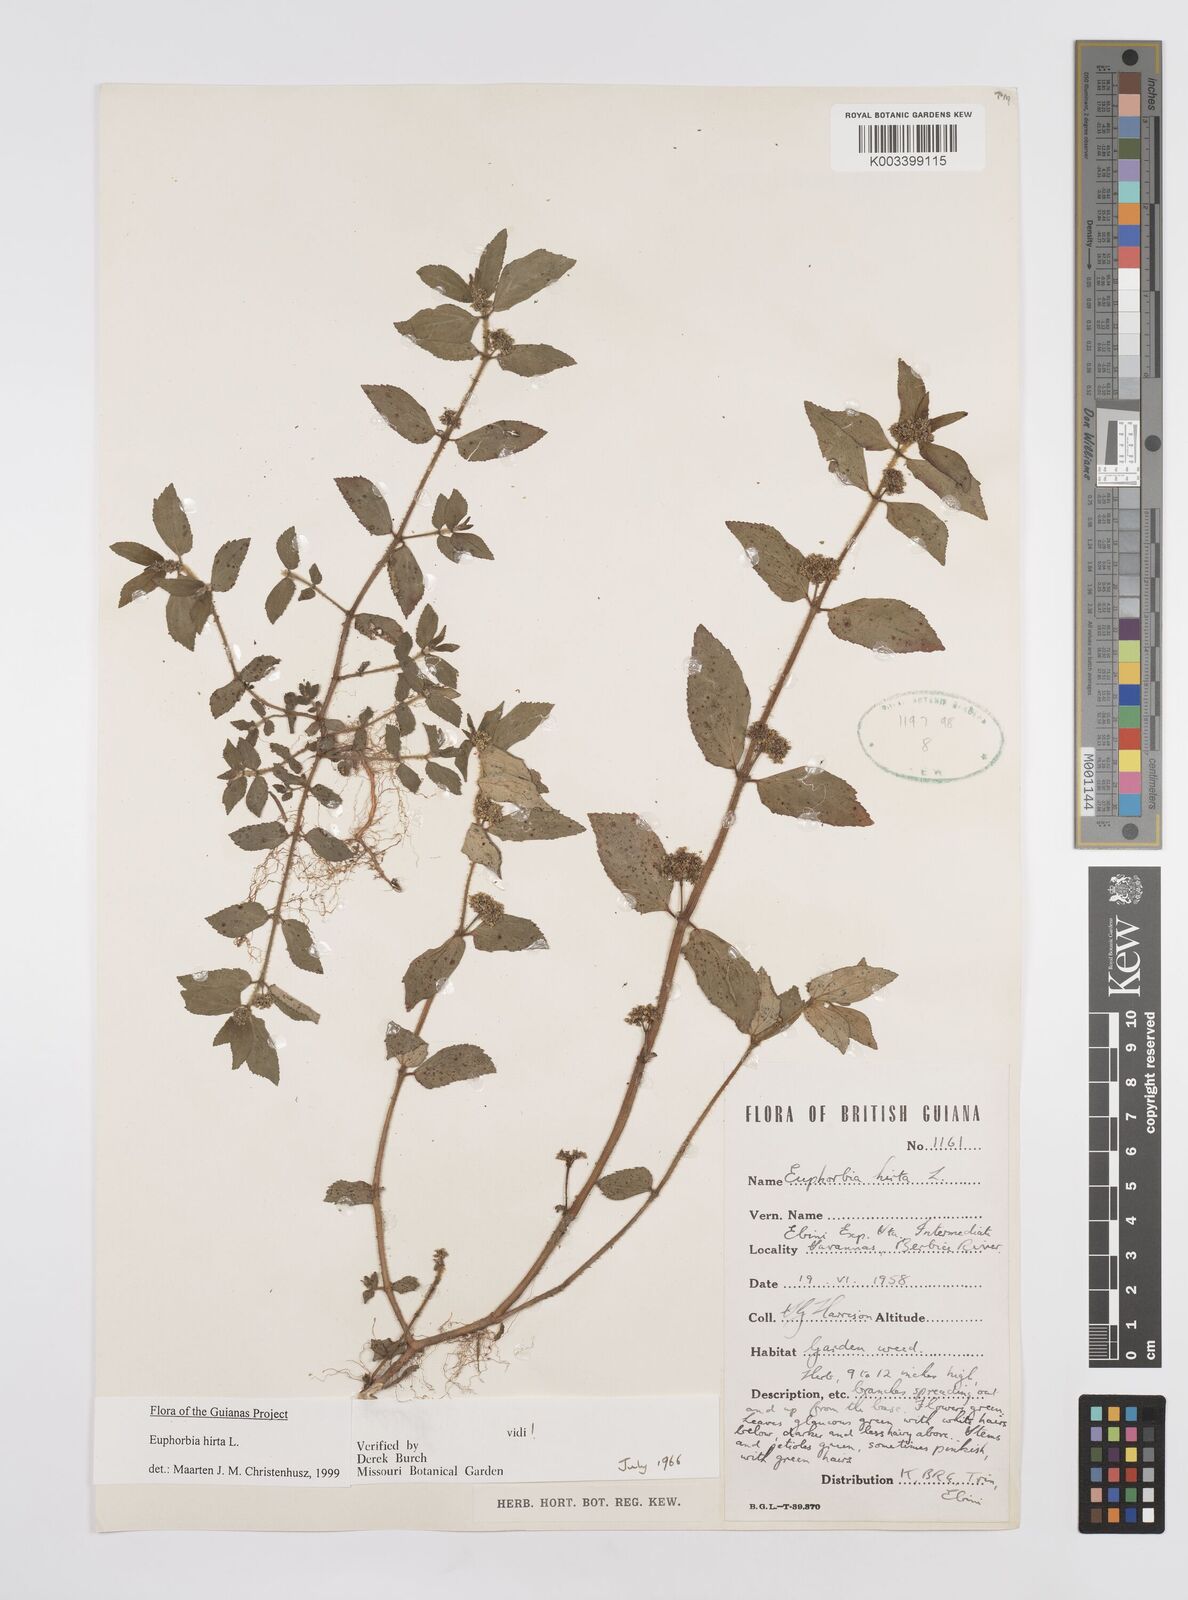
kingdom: Plantae
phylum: Tracheophyta
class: Magnoliopsida
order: Malpighiales
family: Euphorbiaceae
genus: Euphorbia
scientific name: Euphorbia hirta
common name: Pillpod sandmat
